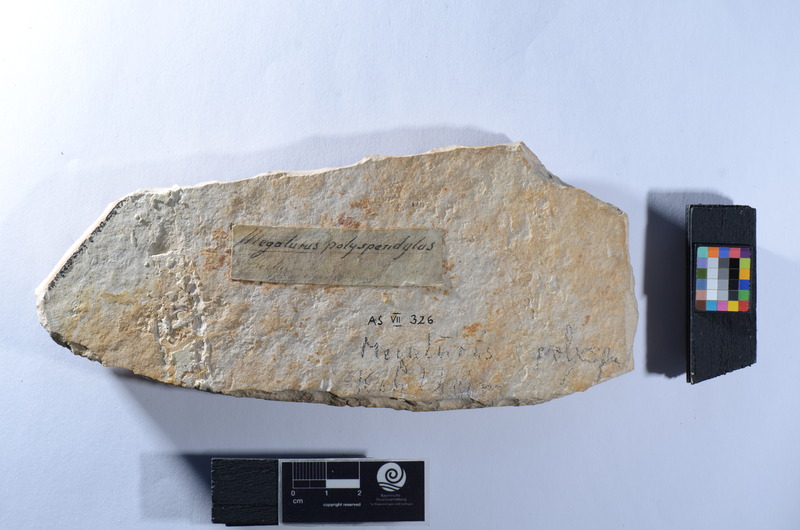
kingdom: Animalia
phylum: Chordata
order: Amiiformes
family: Amiidae
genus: Solnhofenamia
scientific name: Solnhofenamia elongata
